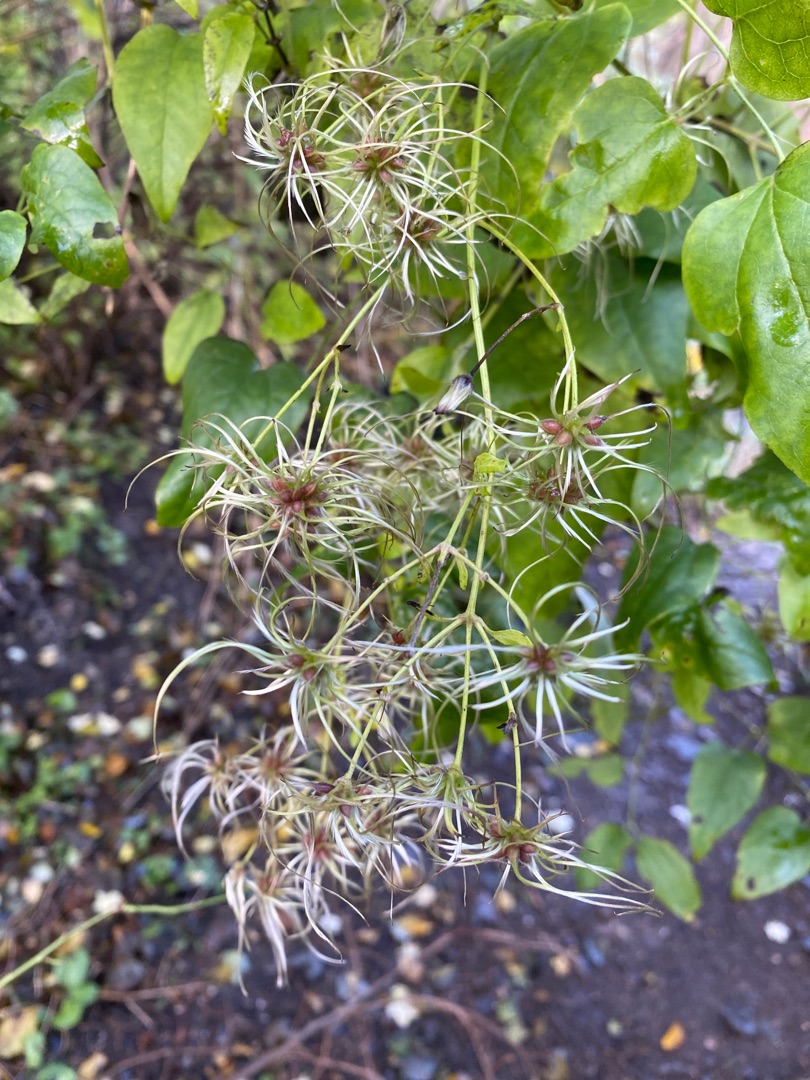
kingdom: Plantae
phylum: Tracheophyta
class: Magnoliopsida
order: Ranunculales
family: Ranunculaceae
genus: Clematis
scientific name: Clematis vitalba
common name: Skovranke
